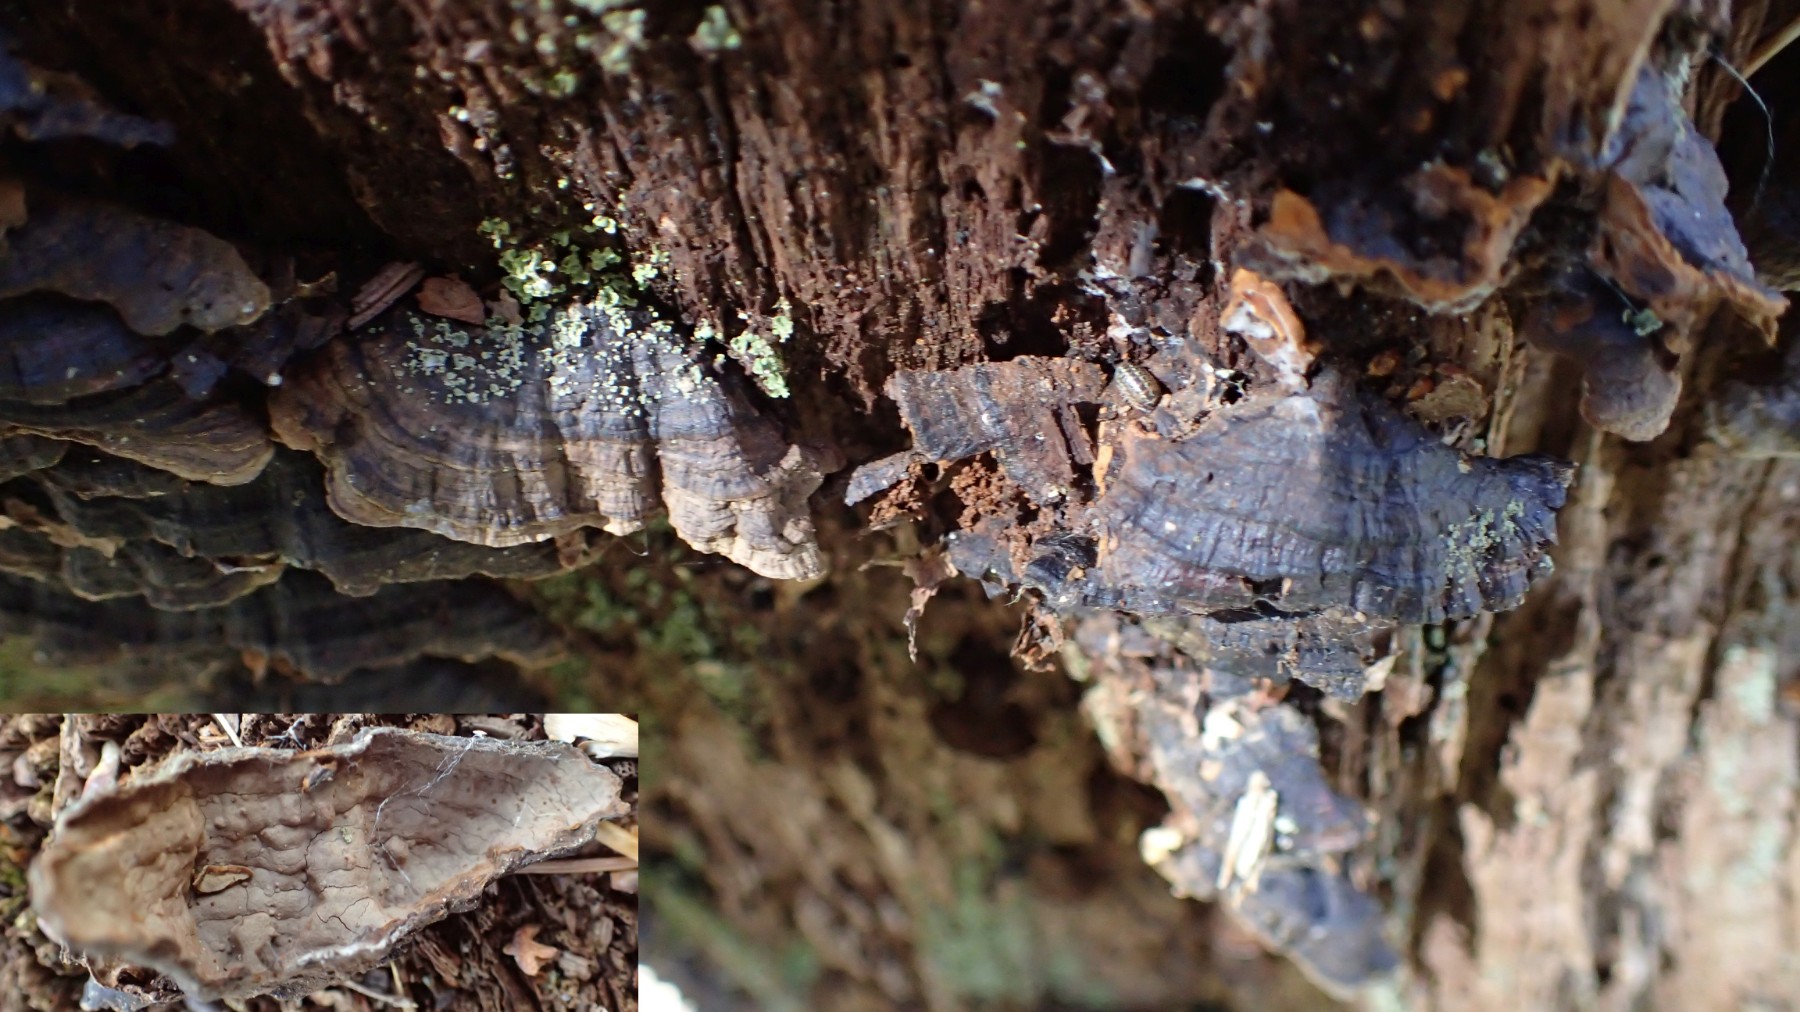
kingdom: Fungi
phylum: Basidiomycota
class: Agaricomycetes
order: Hymenochaetales
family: Hymenochaetaceae
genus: Hymenochaete
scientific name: Hymenochaete rubiginosa
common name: stiv ruslædersvamp
